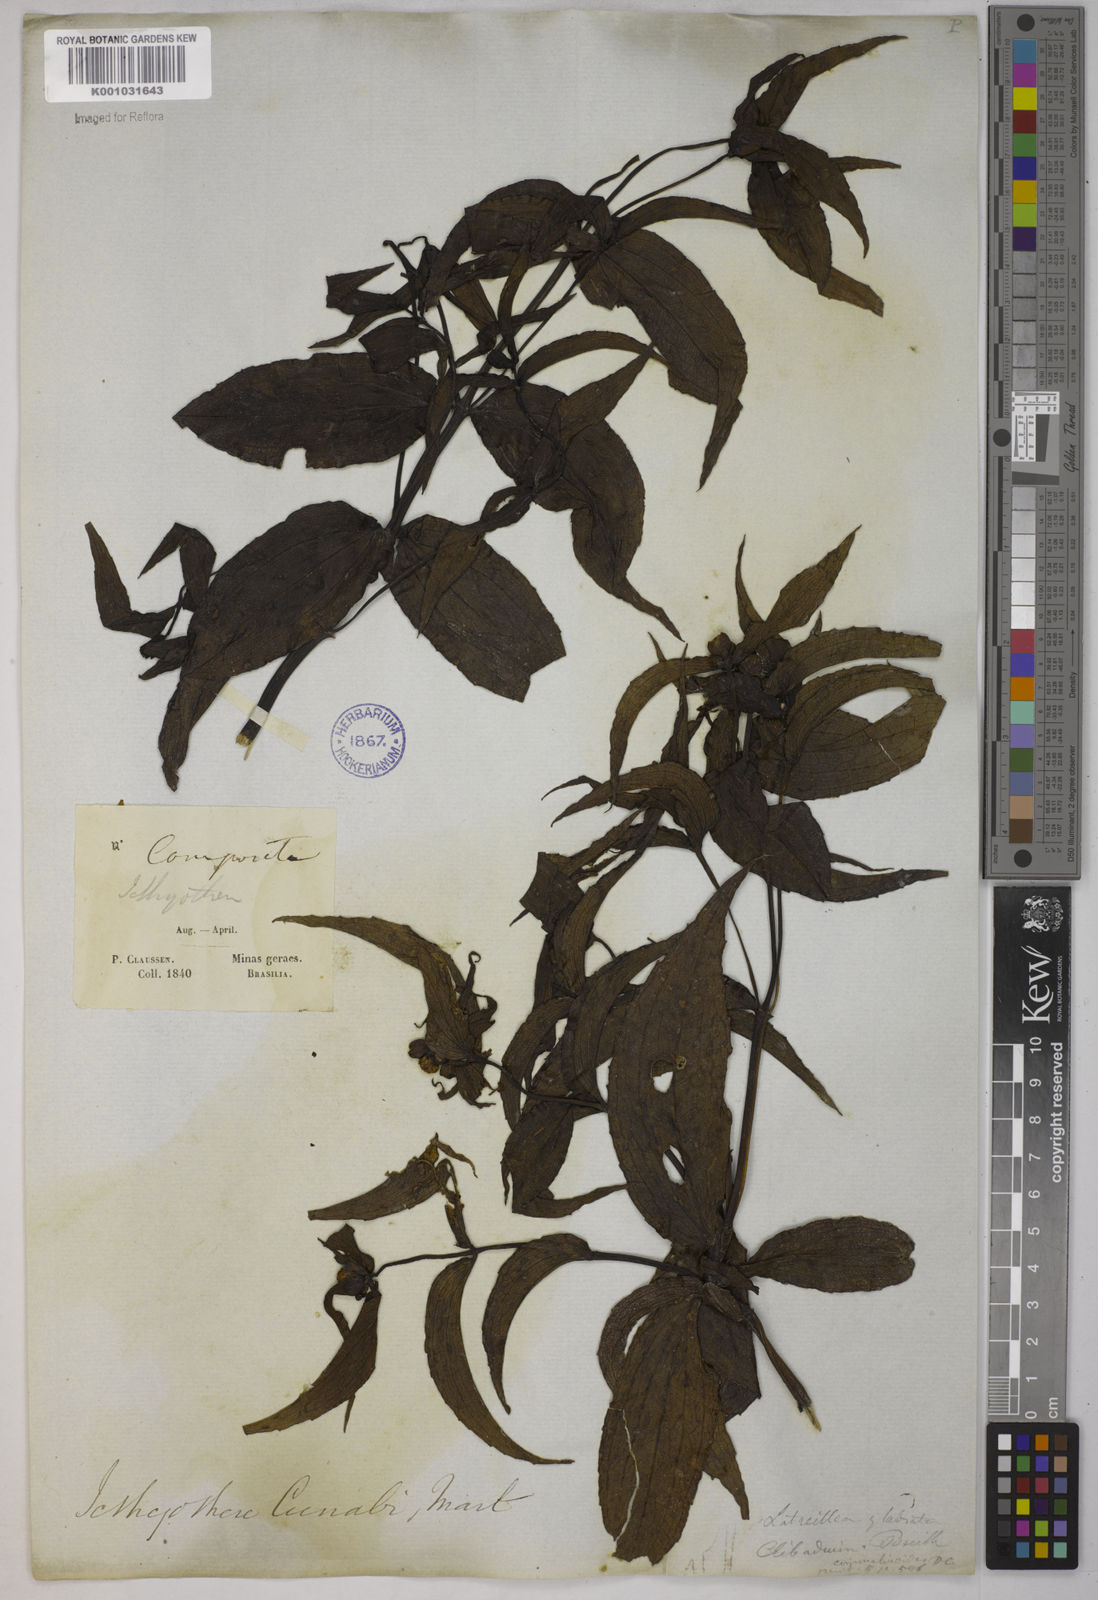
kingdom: Plantae
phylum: Tracheophyta
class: Magnoliopsida
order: Asterales
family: Asteraceae
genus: Ichthyothere
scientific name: Ichthyothere terminalis
